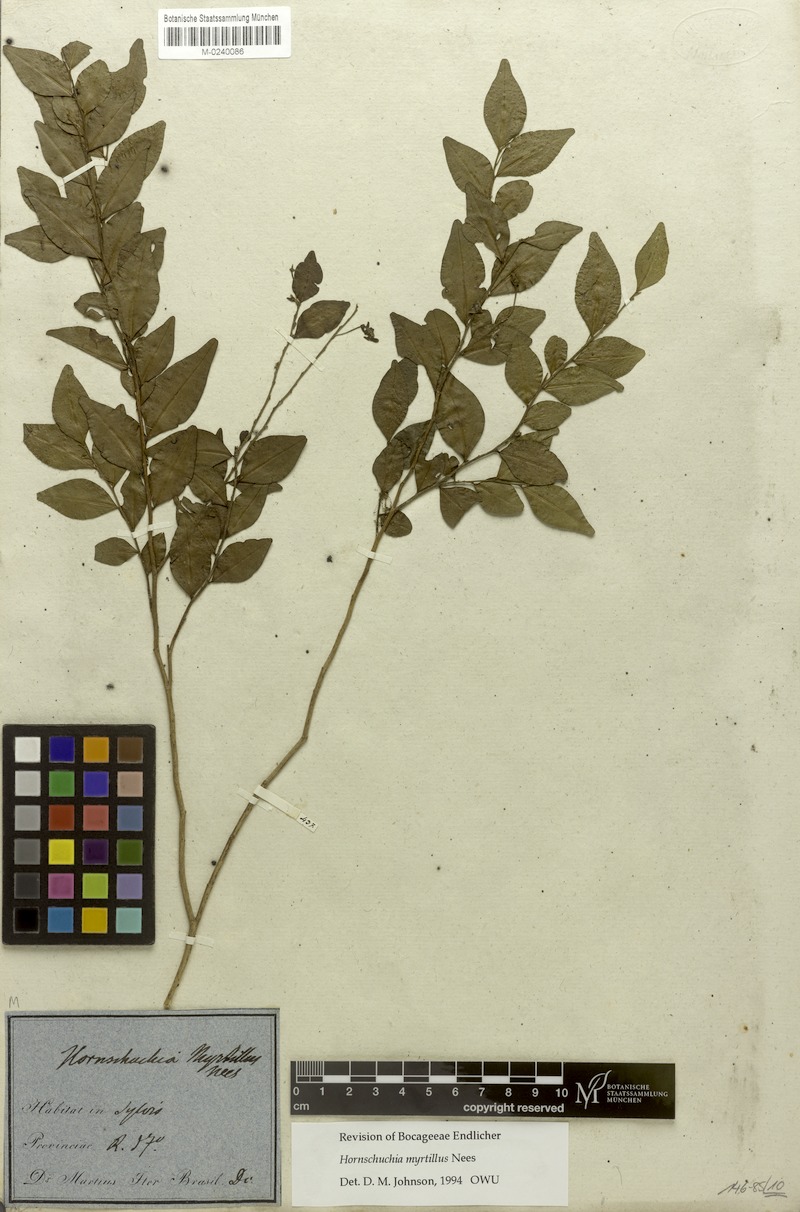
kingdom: Plantae
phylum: Tracheophyta
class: Magnoliopsida
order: Magnoliales
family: Annonaceae
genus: Hornschuchia
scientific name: Hornschuchia myrtillus
